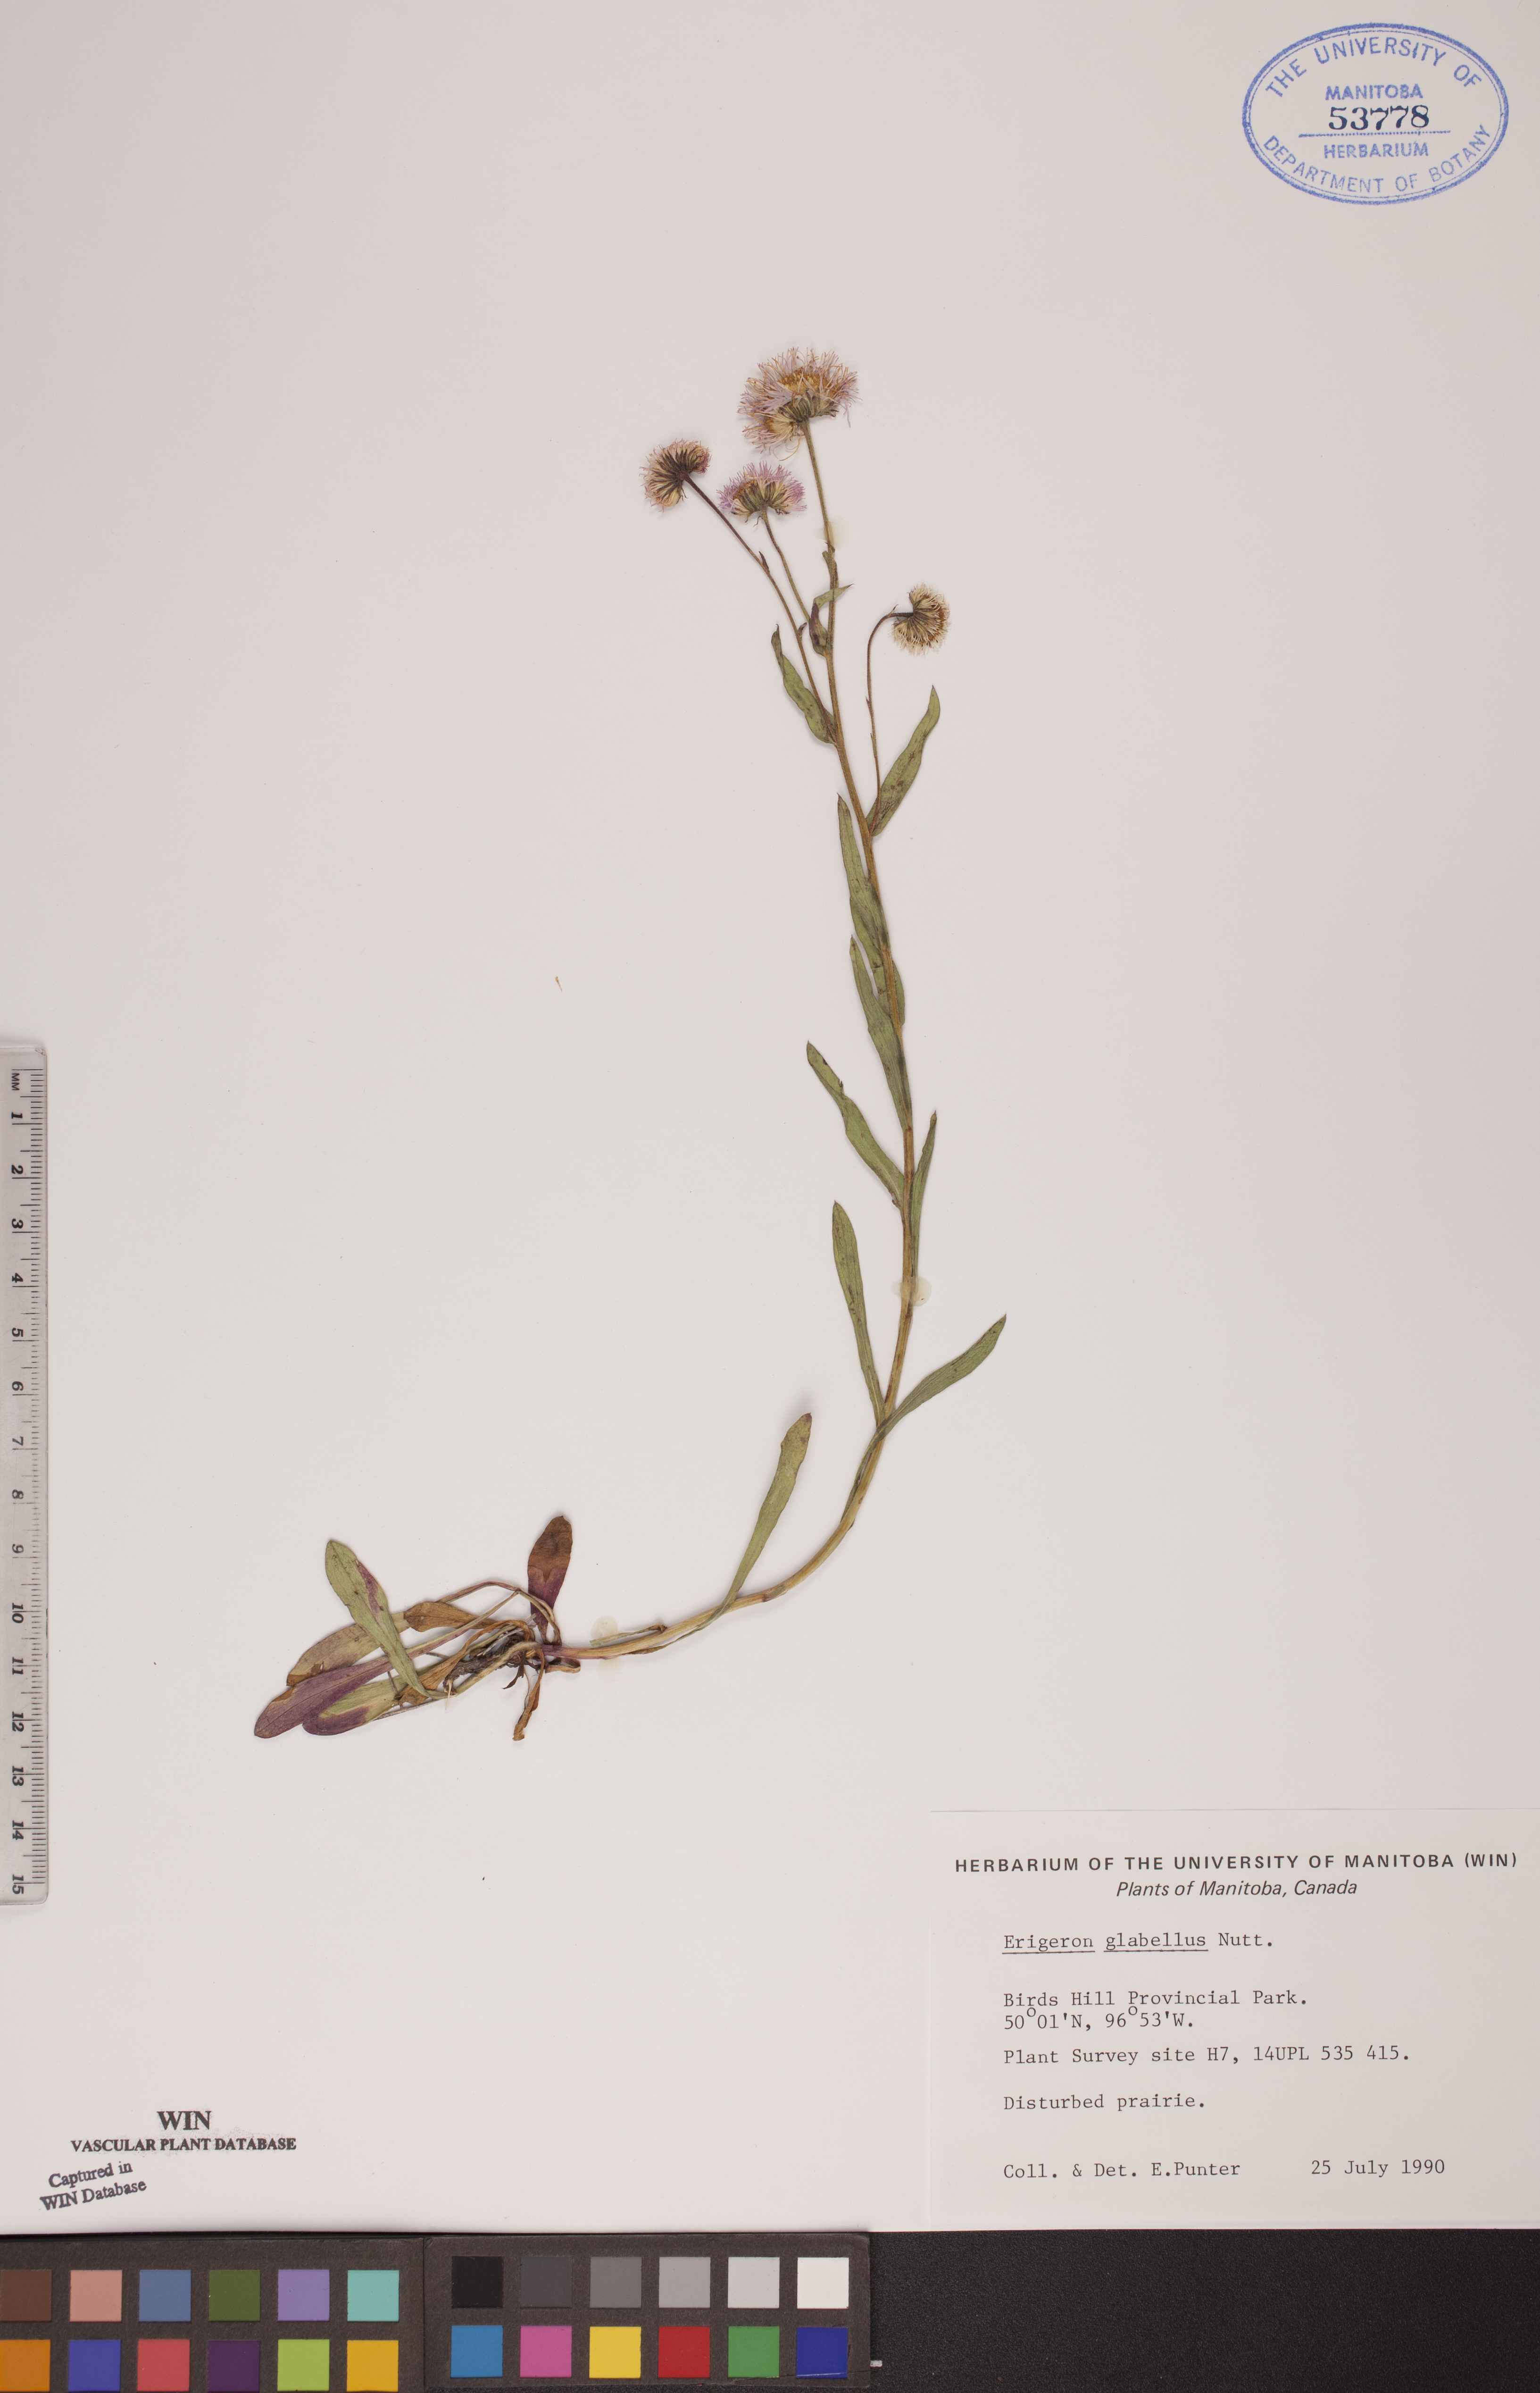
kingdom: Plantae
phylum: Tracheophyta
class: Magnoliopsida
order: Asterales
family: Asteraceae
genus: Erigeron
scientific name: Erigeron glabellus
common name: Smooth fleabane
